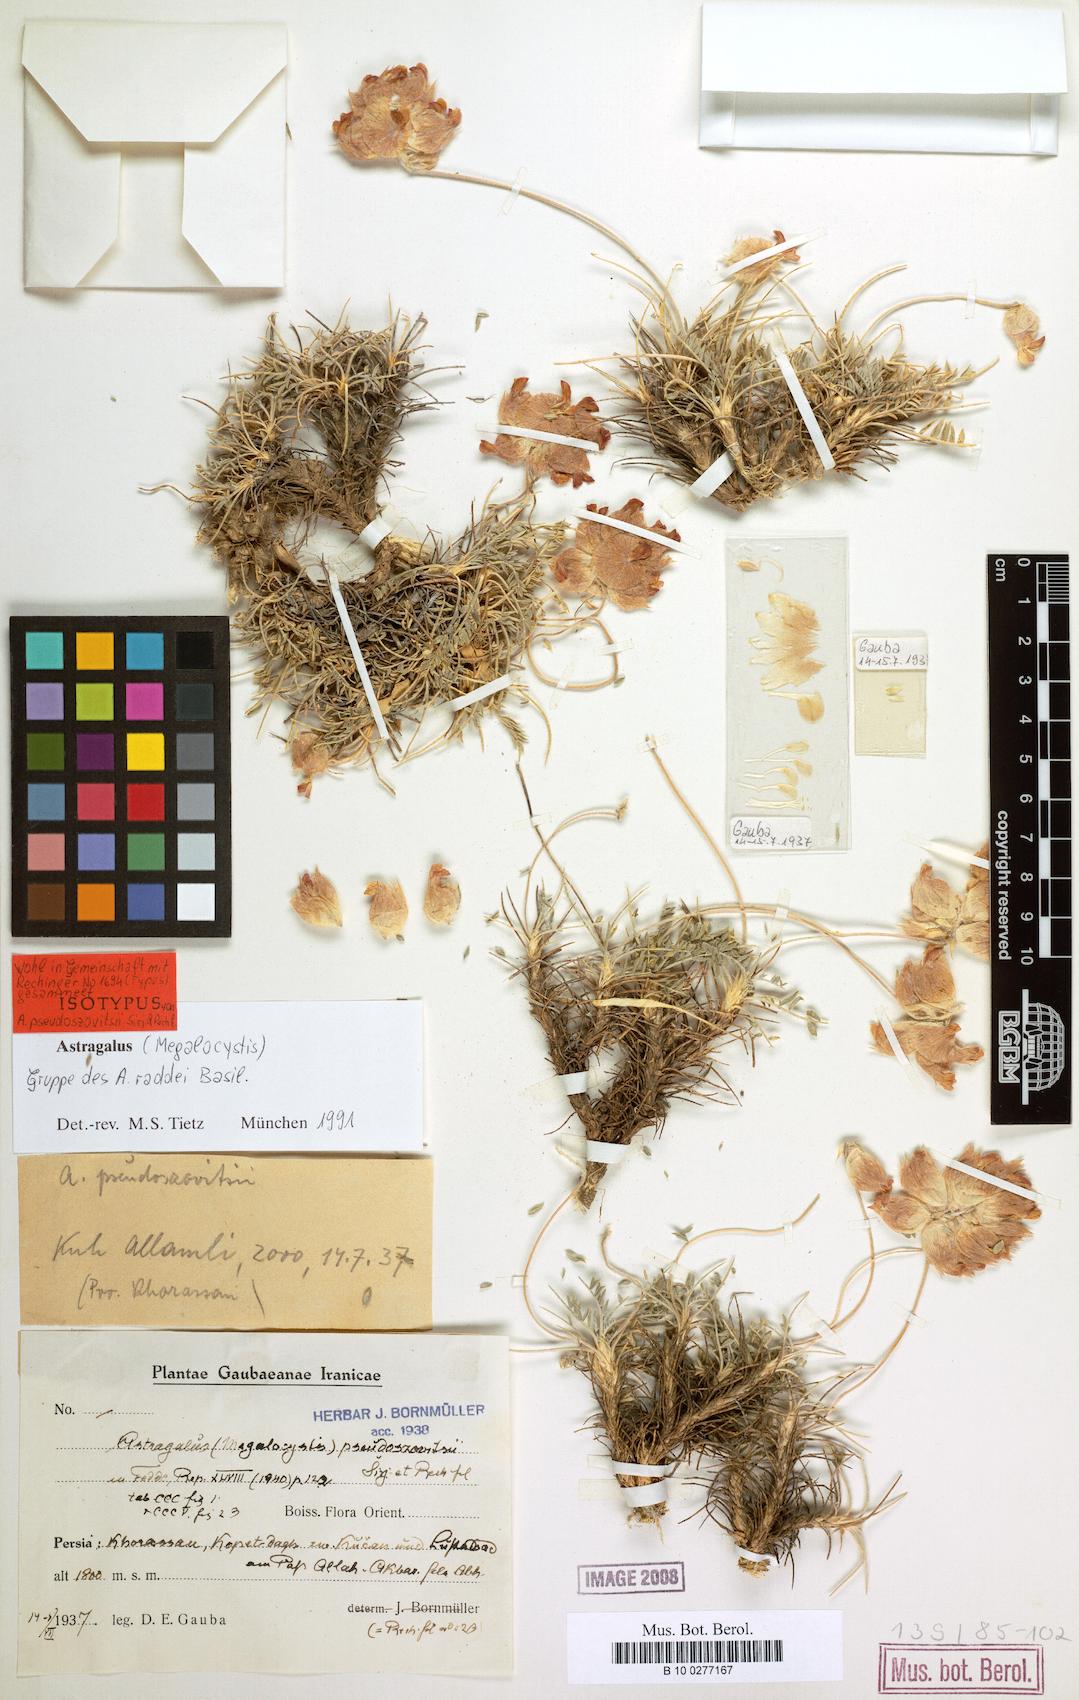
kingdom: Plantae
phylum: Tracheophyta
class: Magnoliopsida
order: Fabales
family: Fabaceae
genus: Astragalus
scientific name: Astragalus raddei
